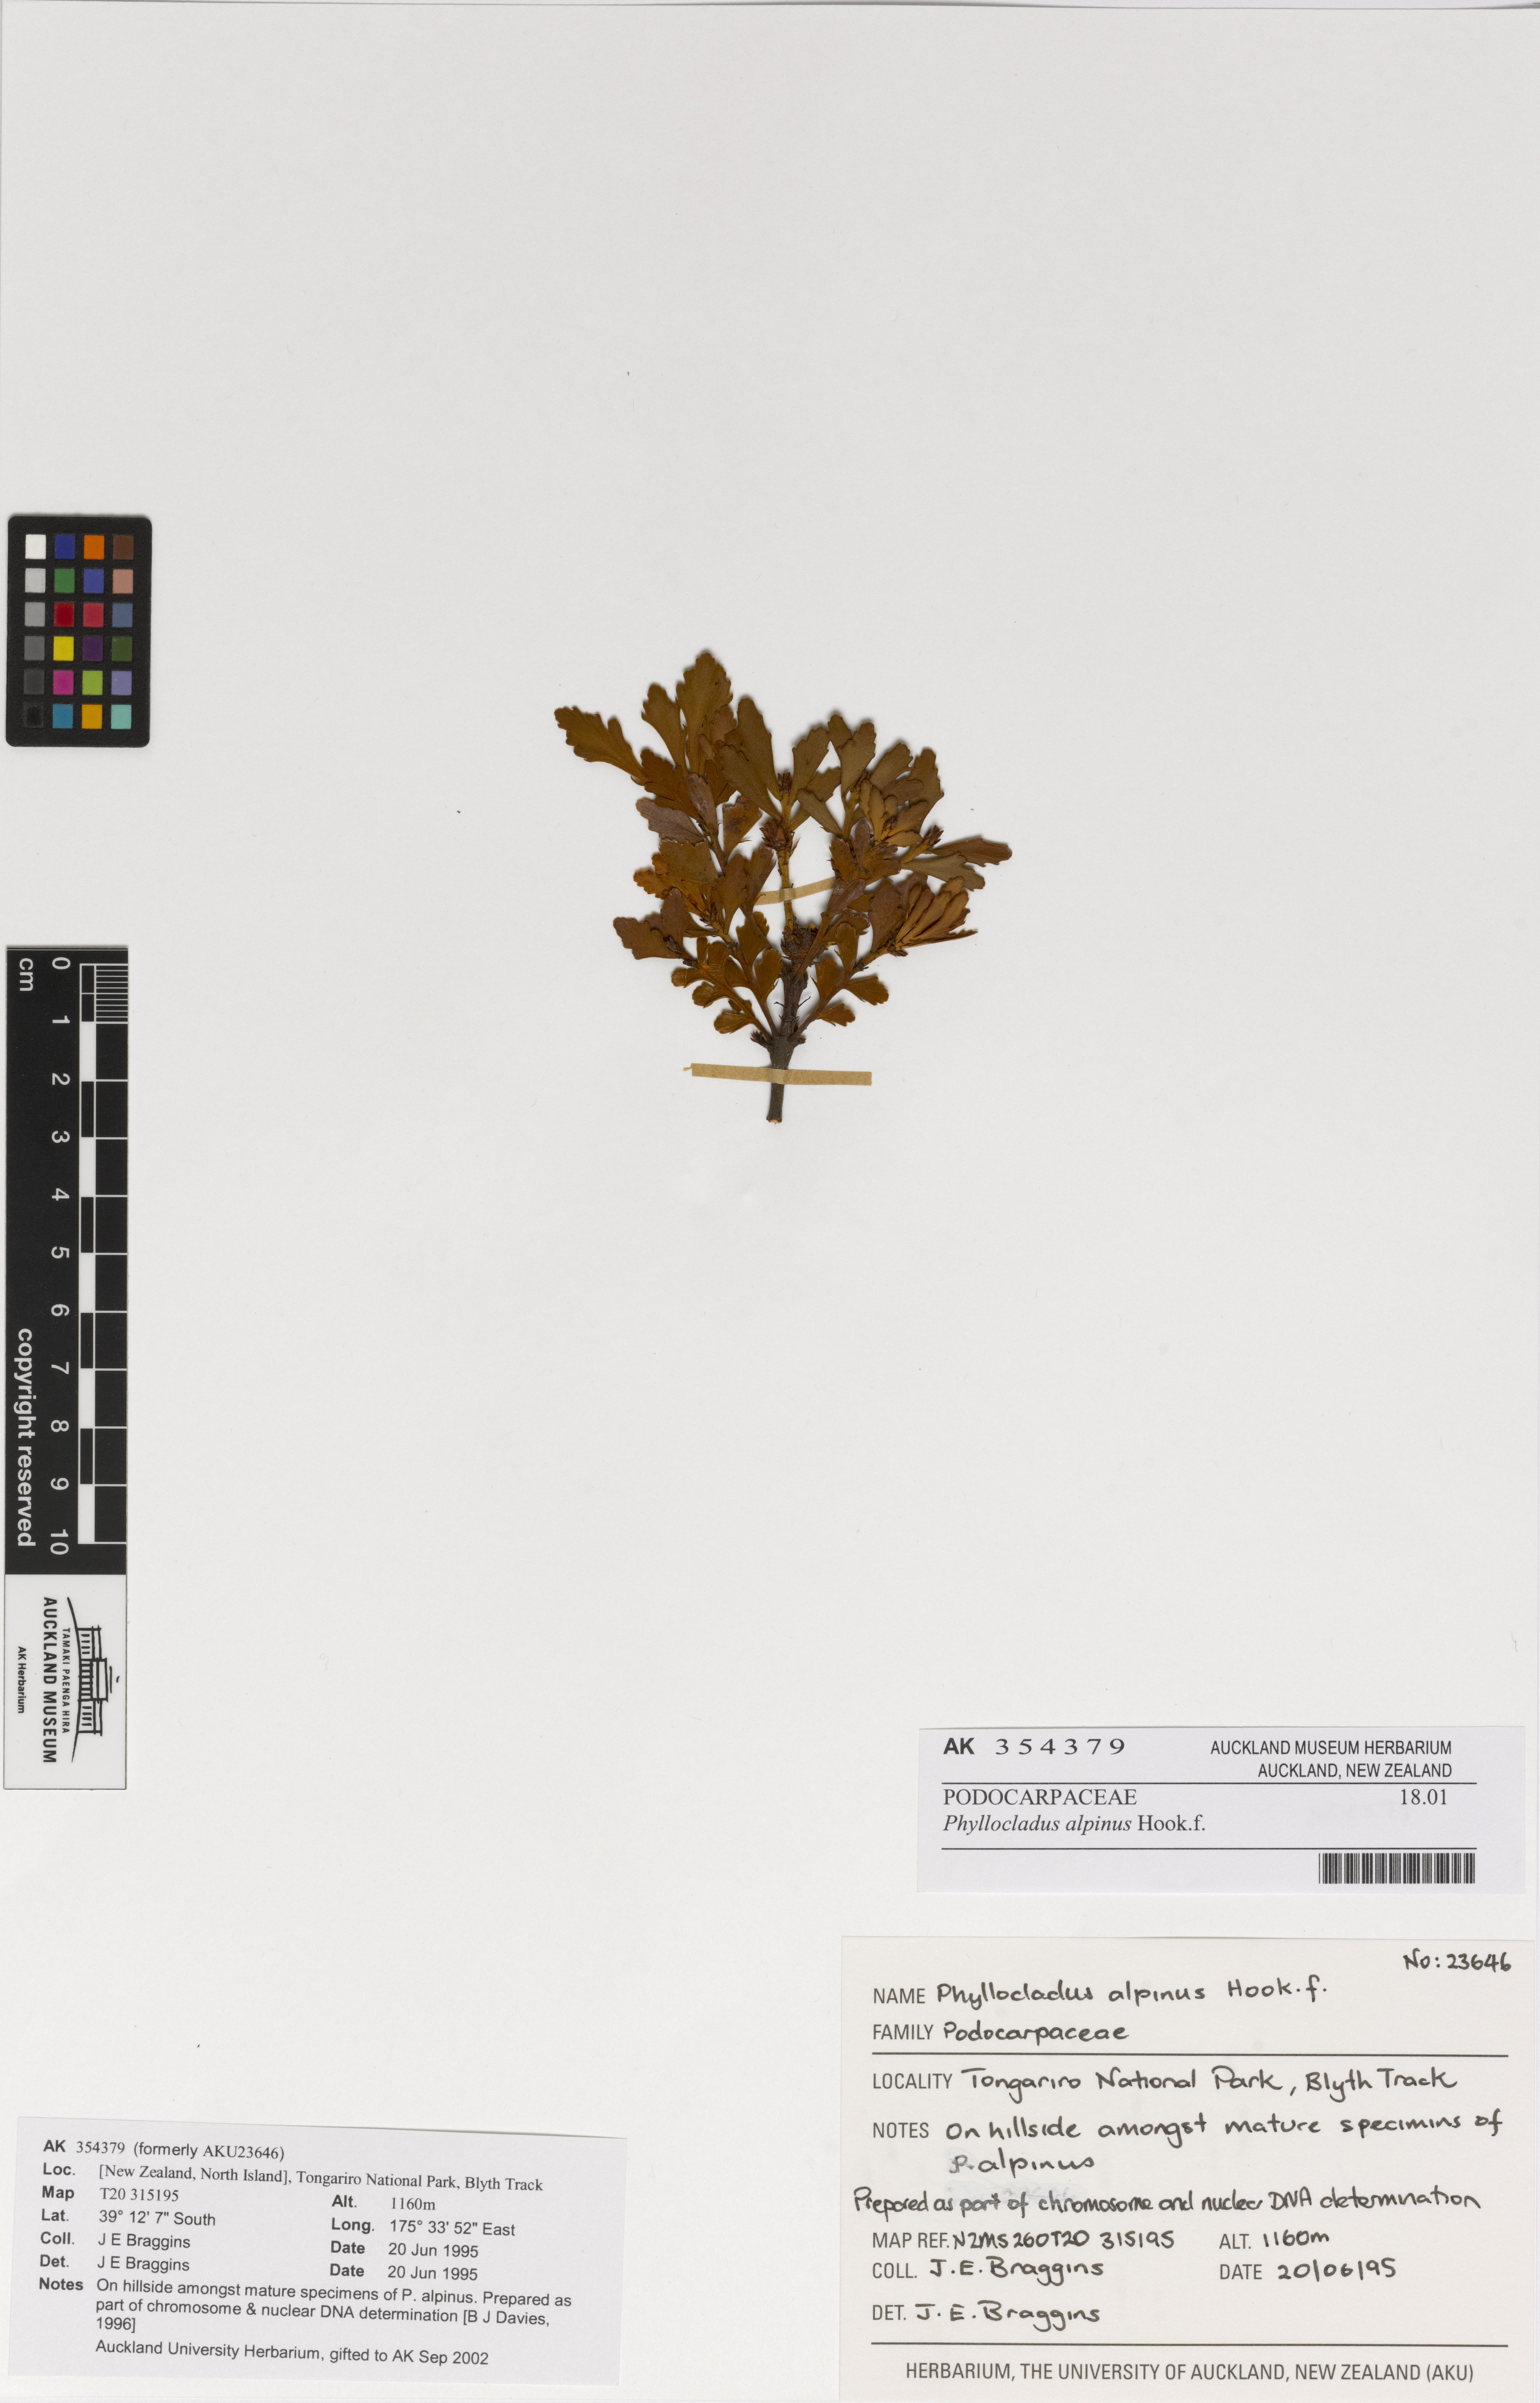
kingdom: Plantae
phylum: Tracheophyta
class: Pinopsida
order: Pinales
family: Phyllocladaceae
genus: Phyllocladus
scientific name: Phyllocladus trichomanoides
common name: Celery pine
